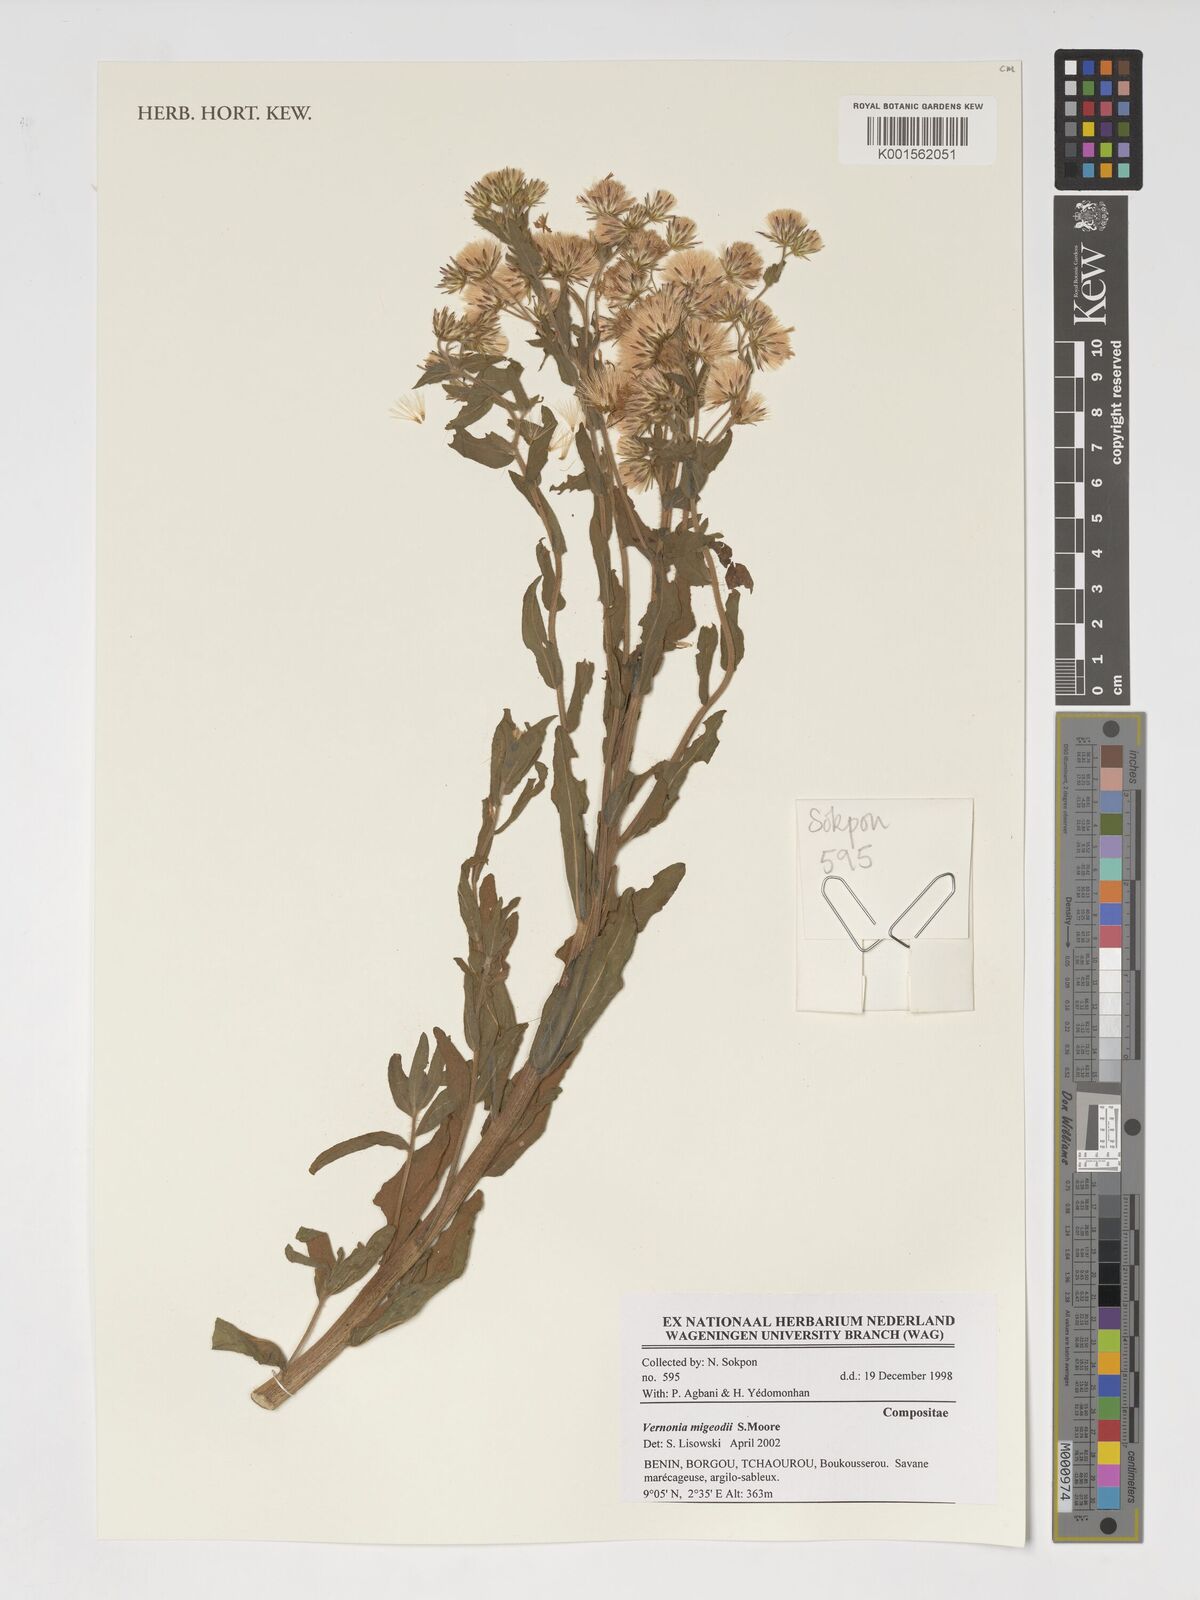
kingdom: Plantae
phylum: Tracheophyta
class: Magnoliopsida
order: Asterales
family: Asteraceae
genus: Vernoniastrum
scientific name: Vernoniastrum migeodii
